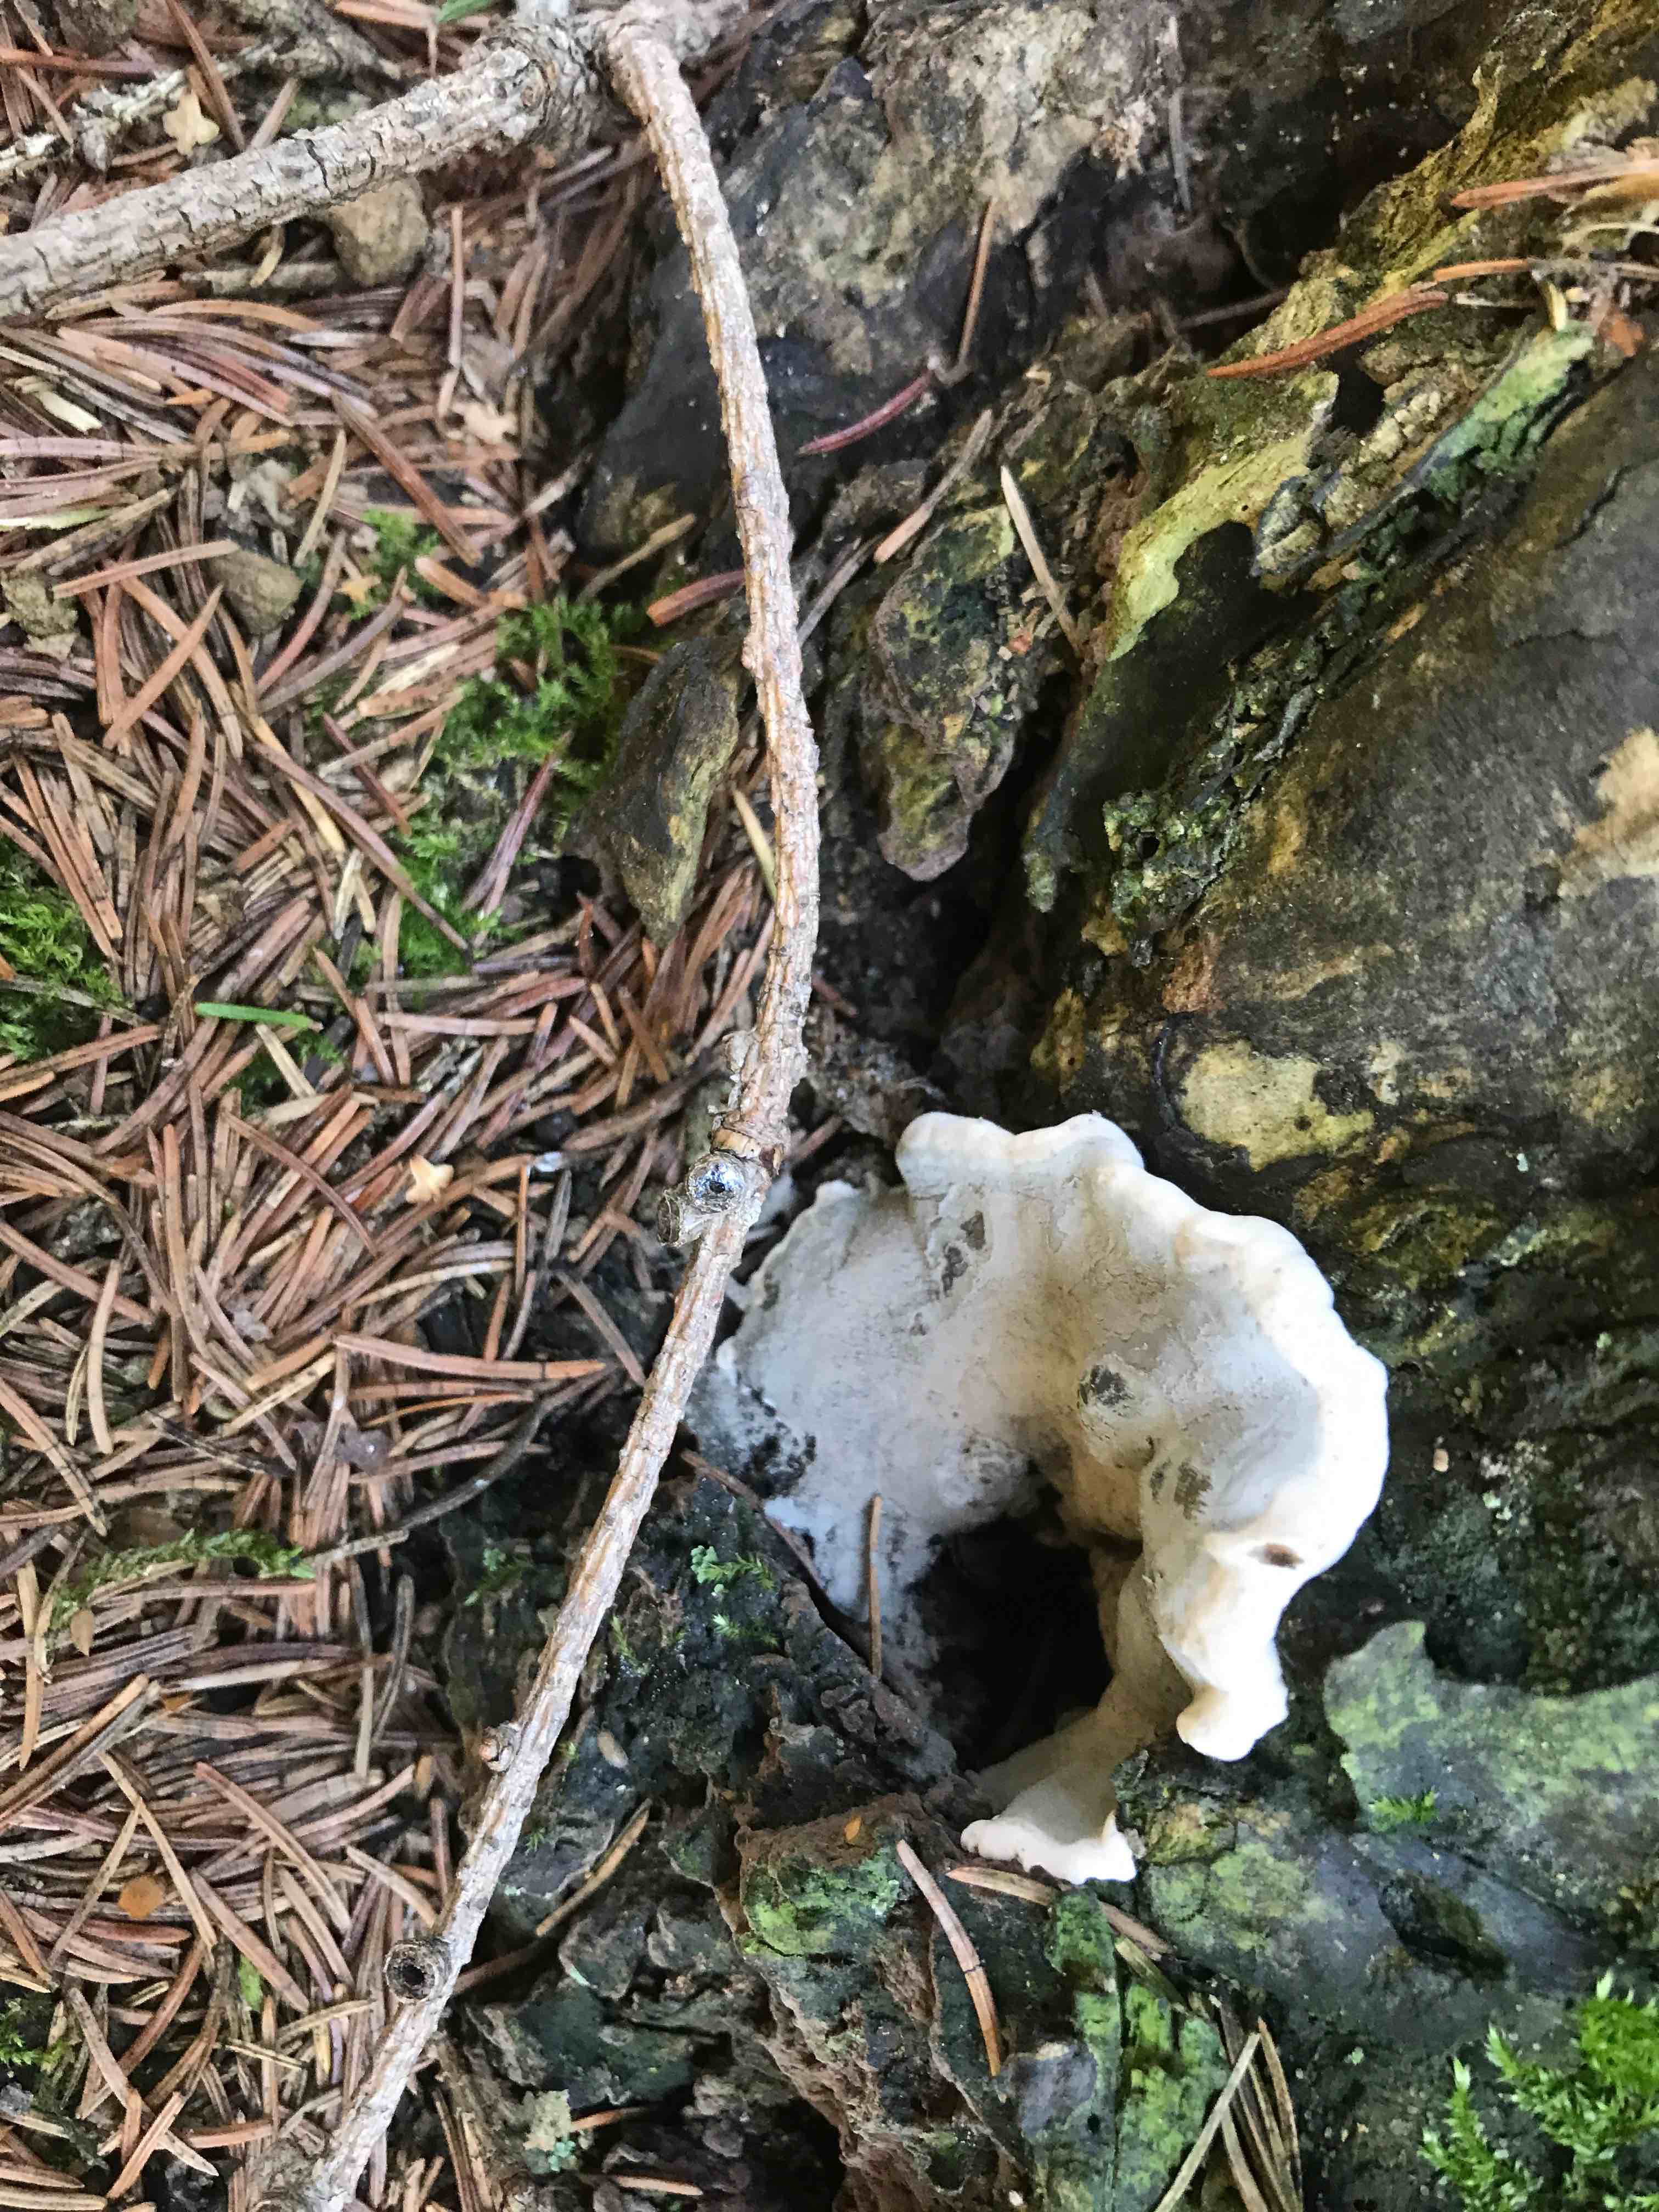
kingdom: Fungi
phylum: Basidiomycota
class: Agaricomycetes
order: Polyporales
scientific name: Polyporales
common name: poresvampordenen
